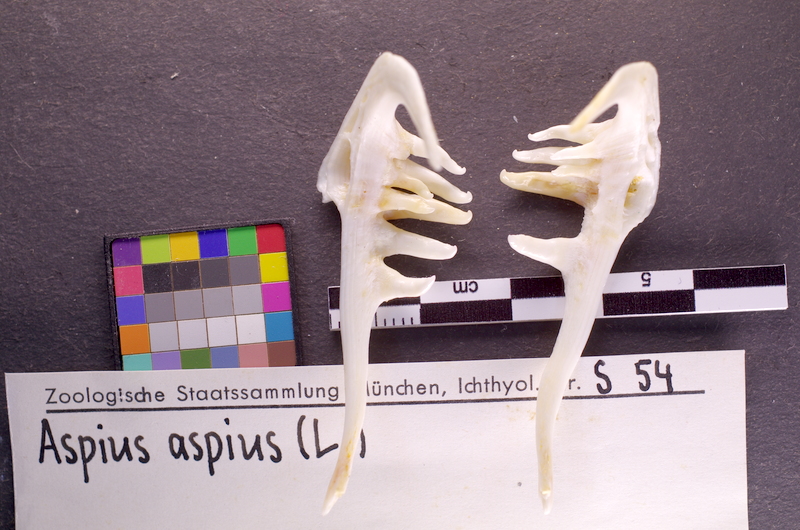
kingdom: Animalia
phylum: Chordata
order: Cypriniformes
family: Cyprinidae
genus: Leuciscus
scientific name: Leuciscus aspius
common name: Asp
